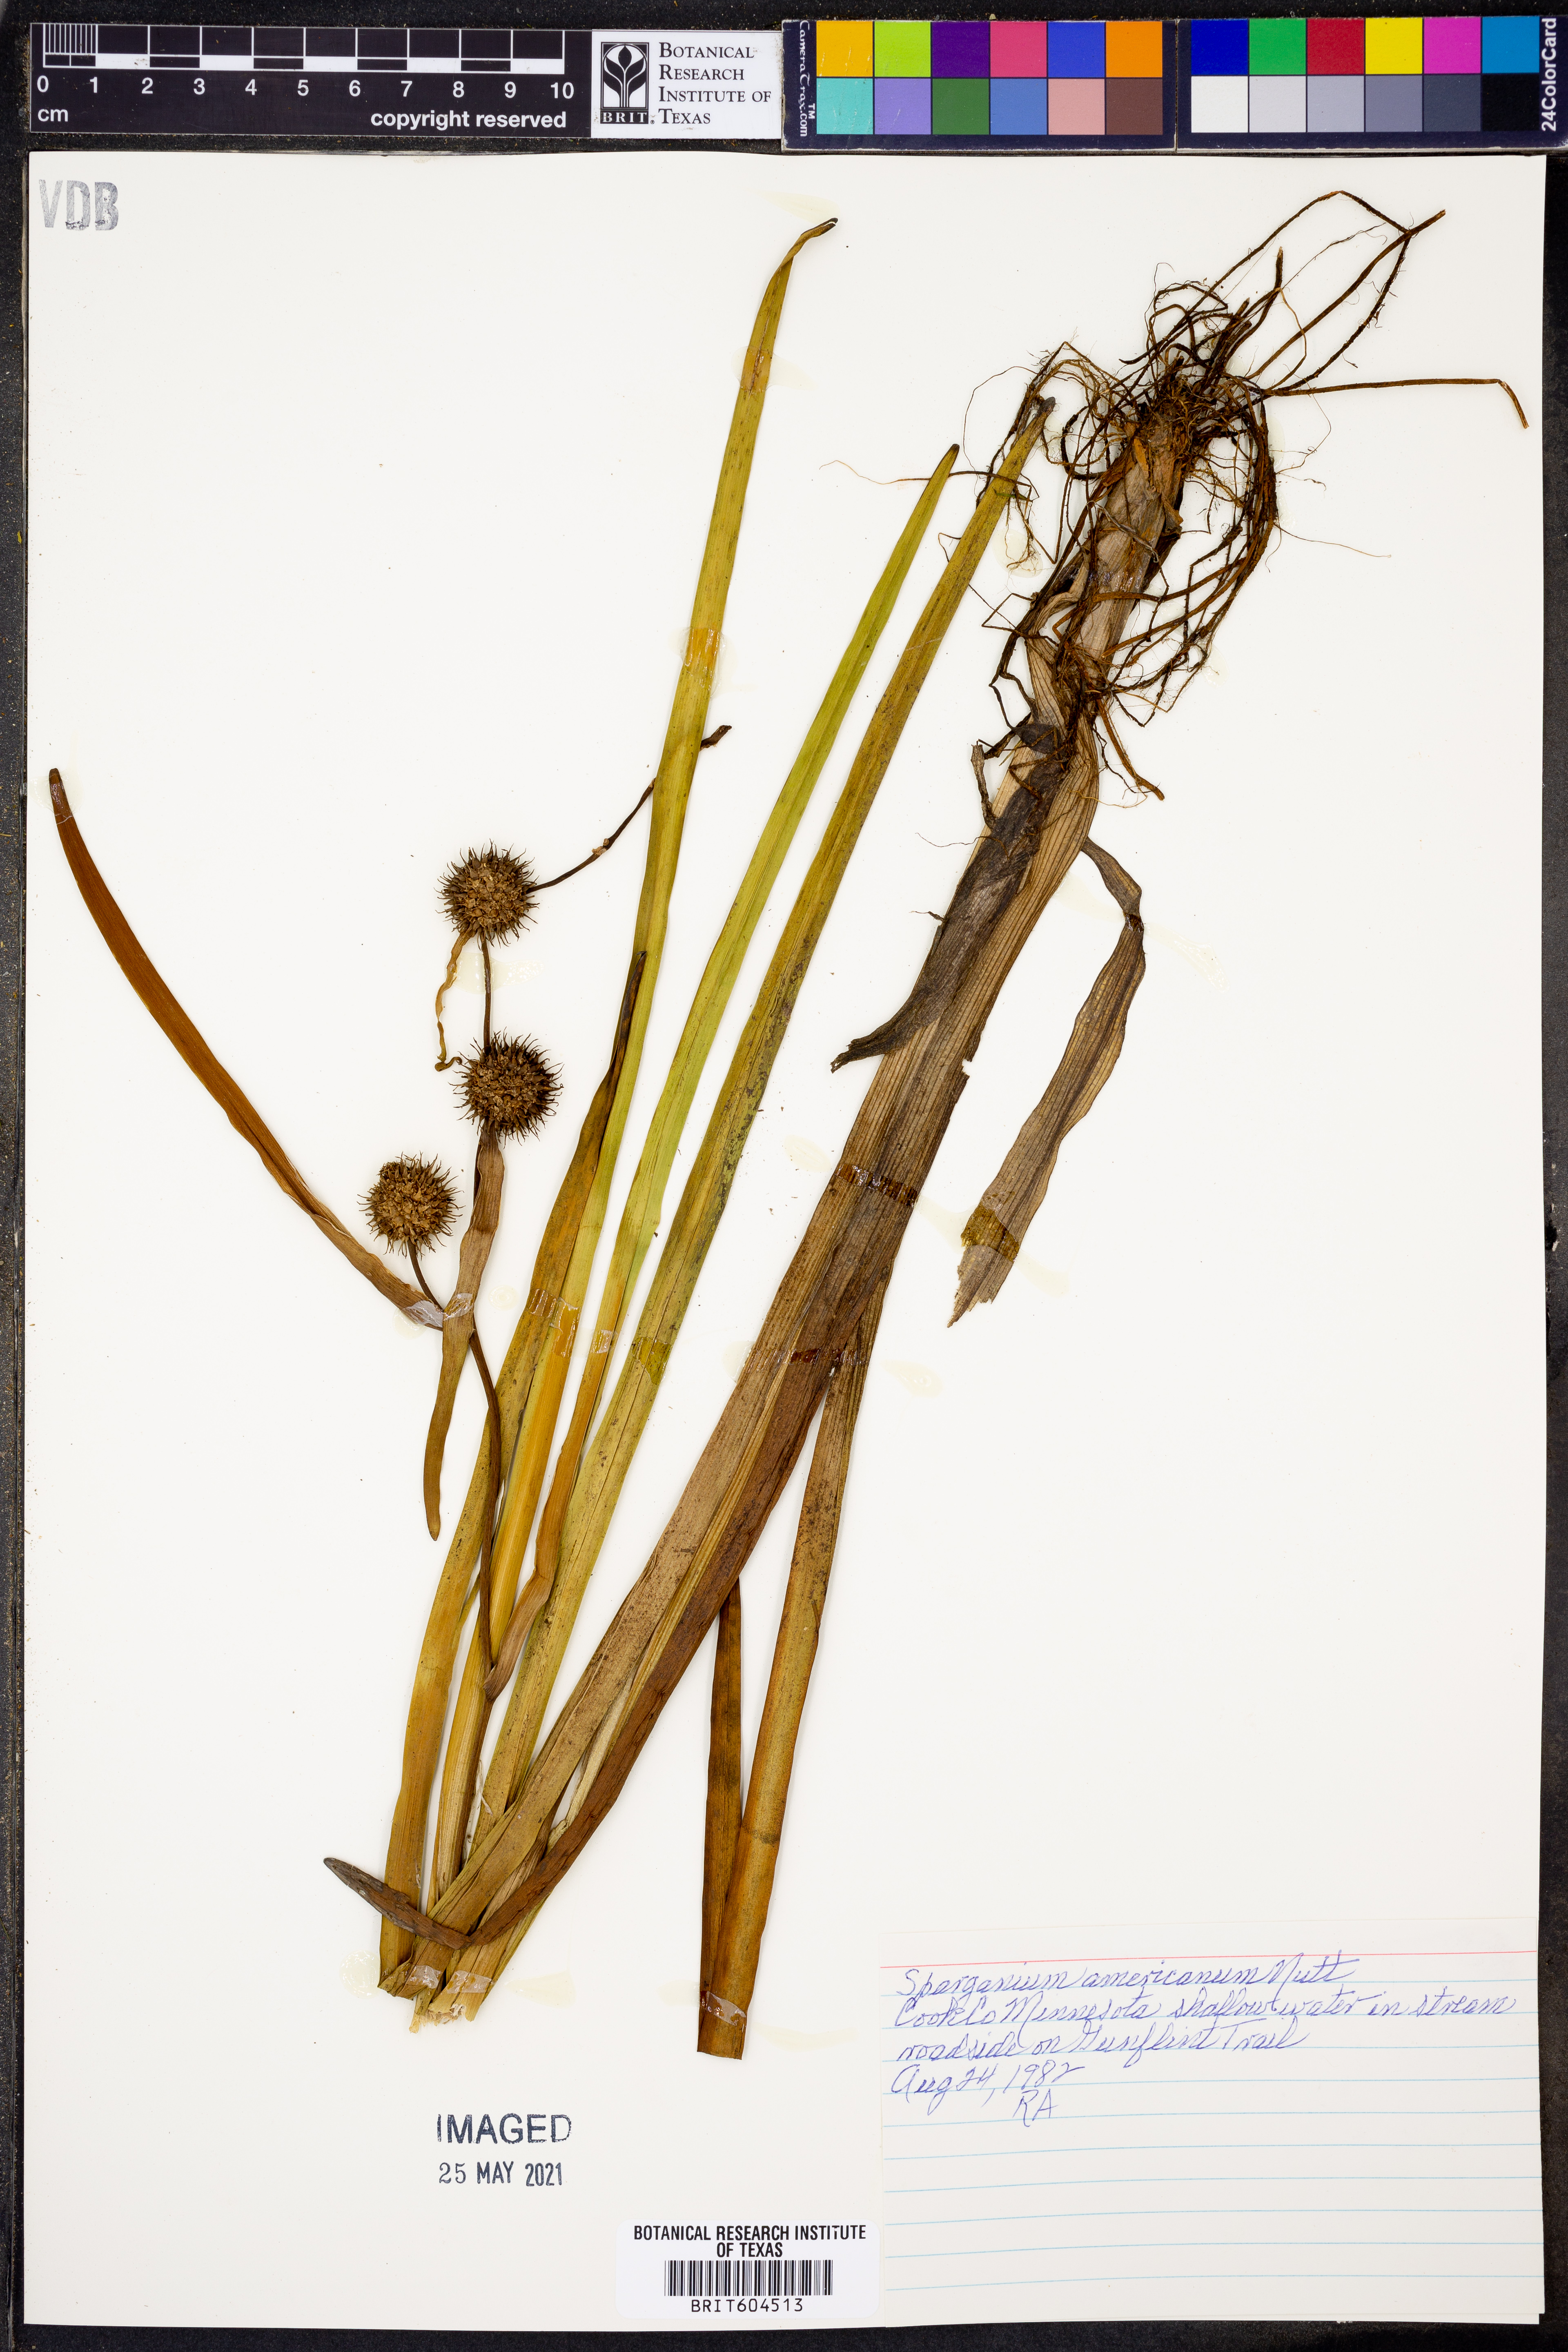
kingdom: Plantae
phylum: Tracheophyta
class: Liliopsida
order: Poales
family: Typhaceae
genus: Sparganium
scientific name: Sparganium americanum
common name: American burreed
